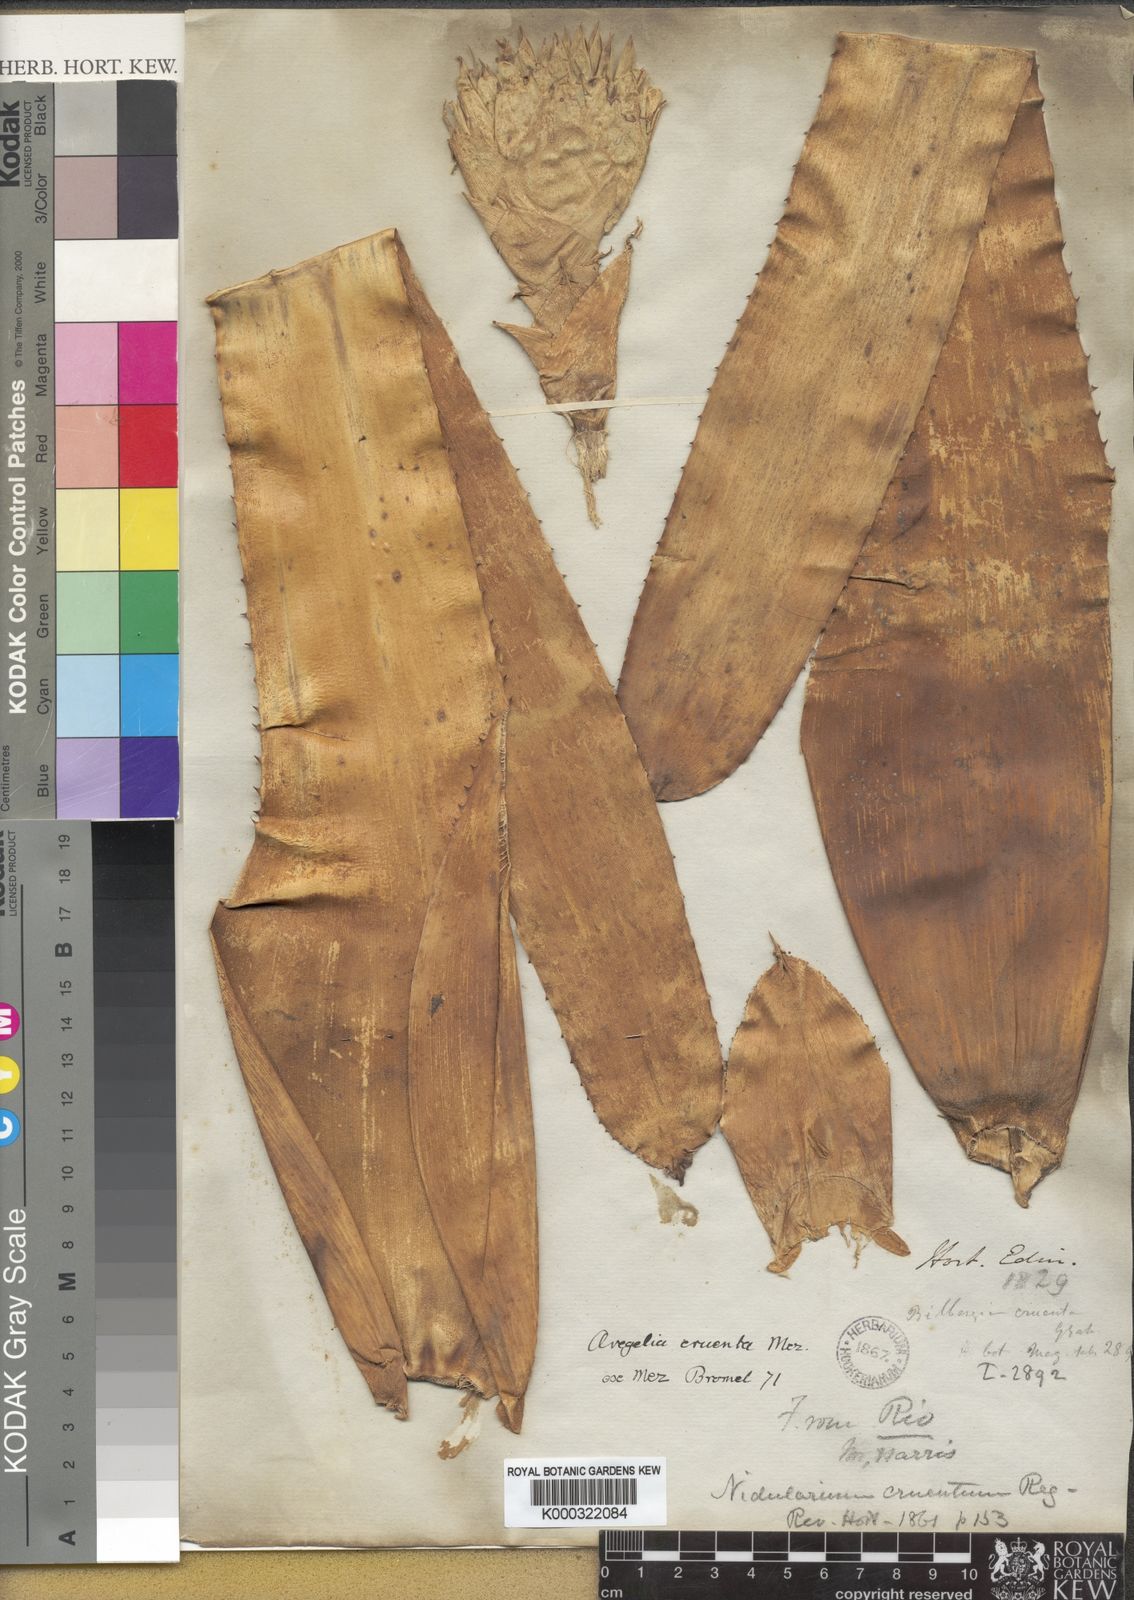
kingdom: Plantae
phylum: Tracheophyta
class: Liliopsida
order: Poales
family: Bromeliaceae
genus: Neoregelia
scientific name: Neoregelia cruenta
